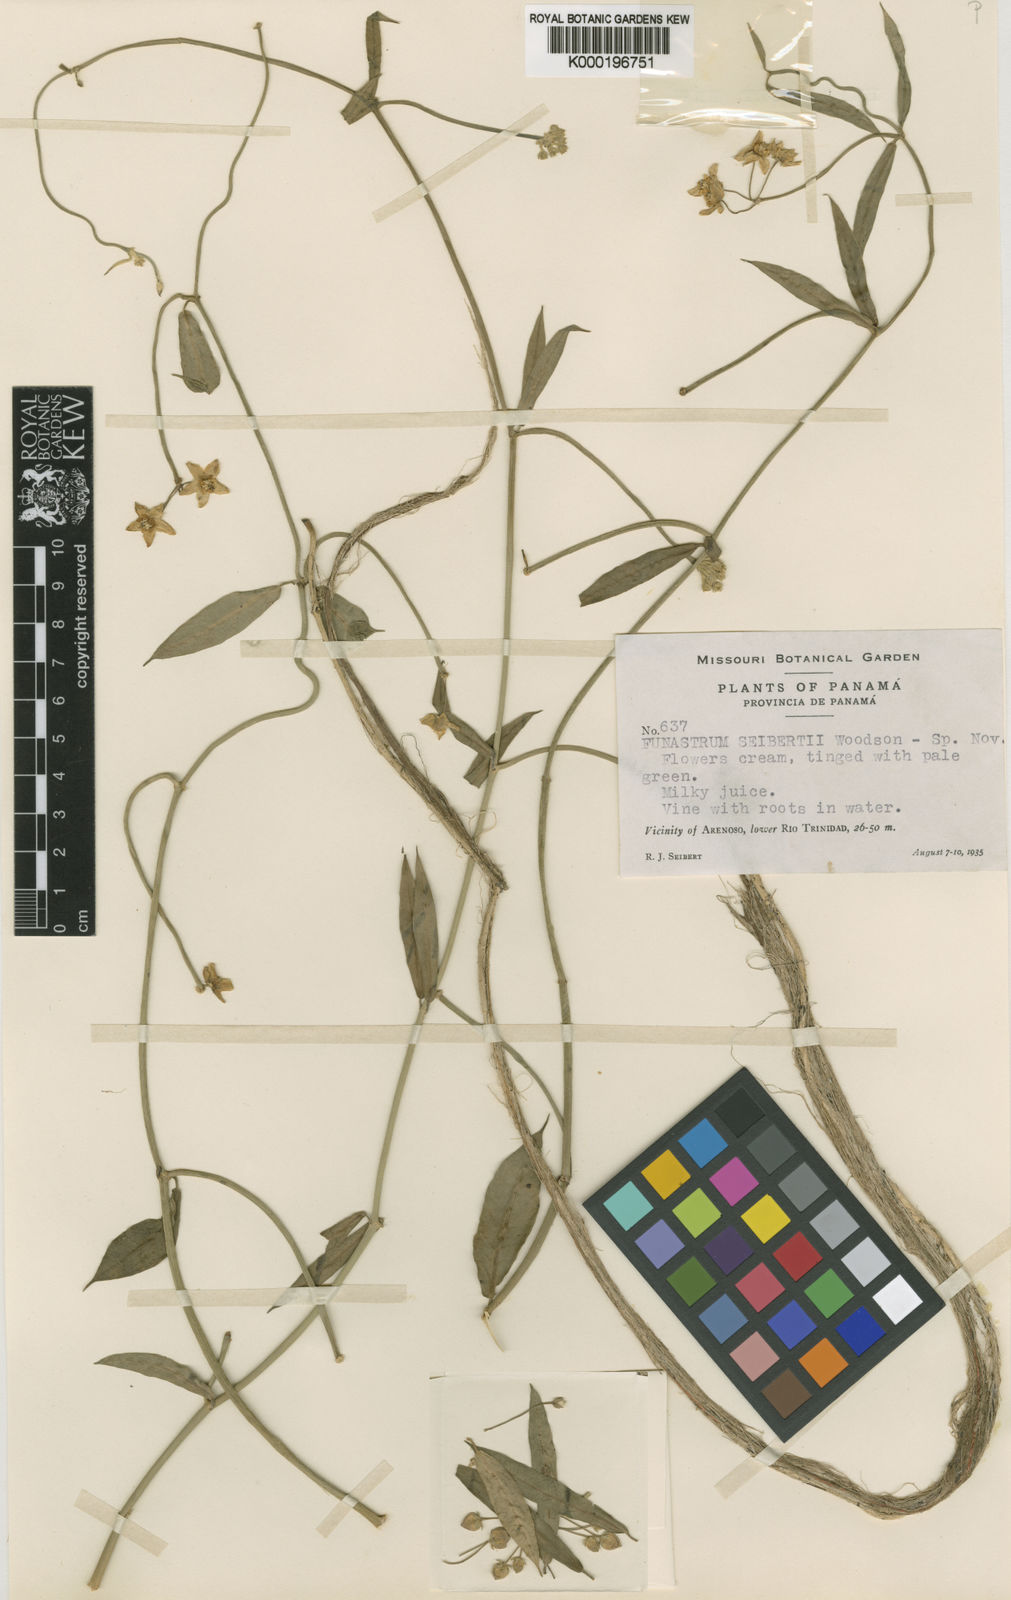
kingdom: Plantae
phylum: Tracheophyta
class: Magnoliopsida
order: Gentianales
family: Apocynaceae
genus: Funastrum
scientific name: Funastrum clausum
